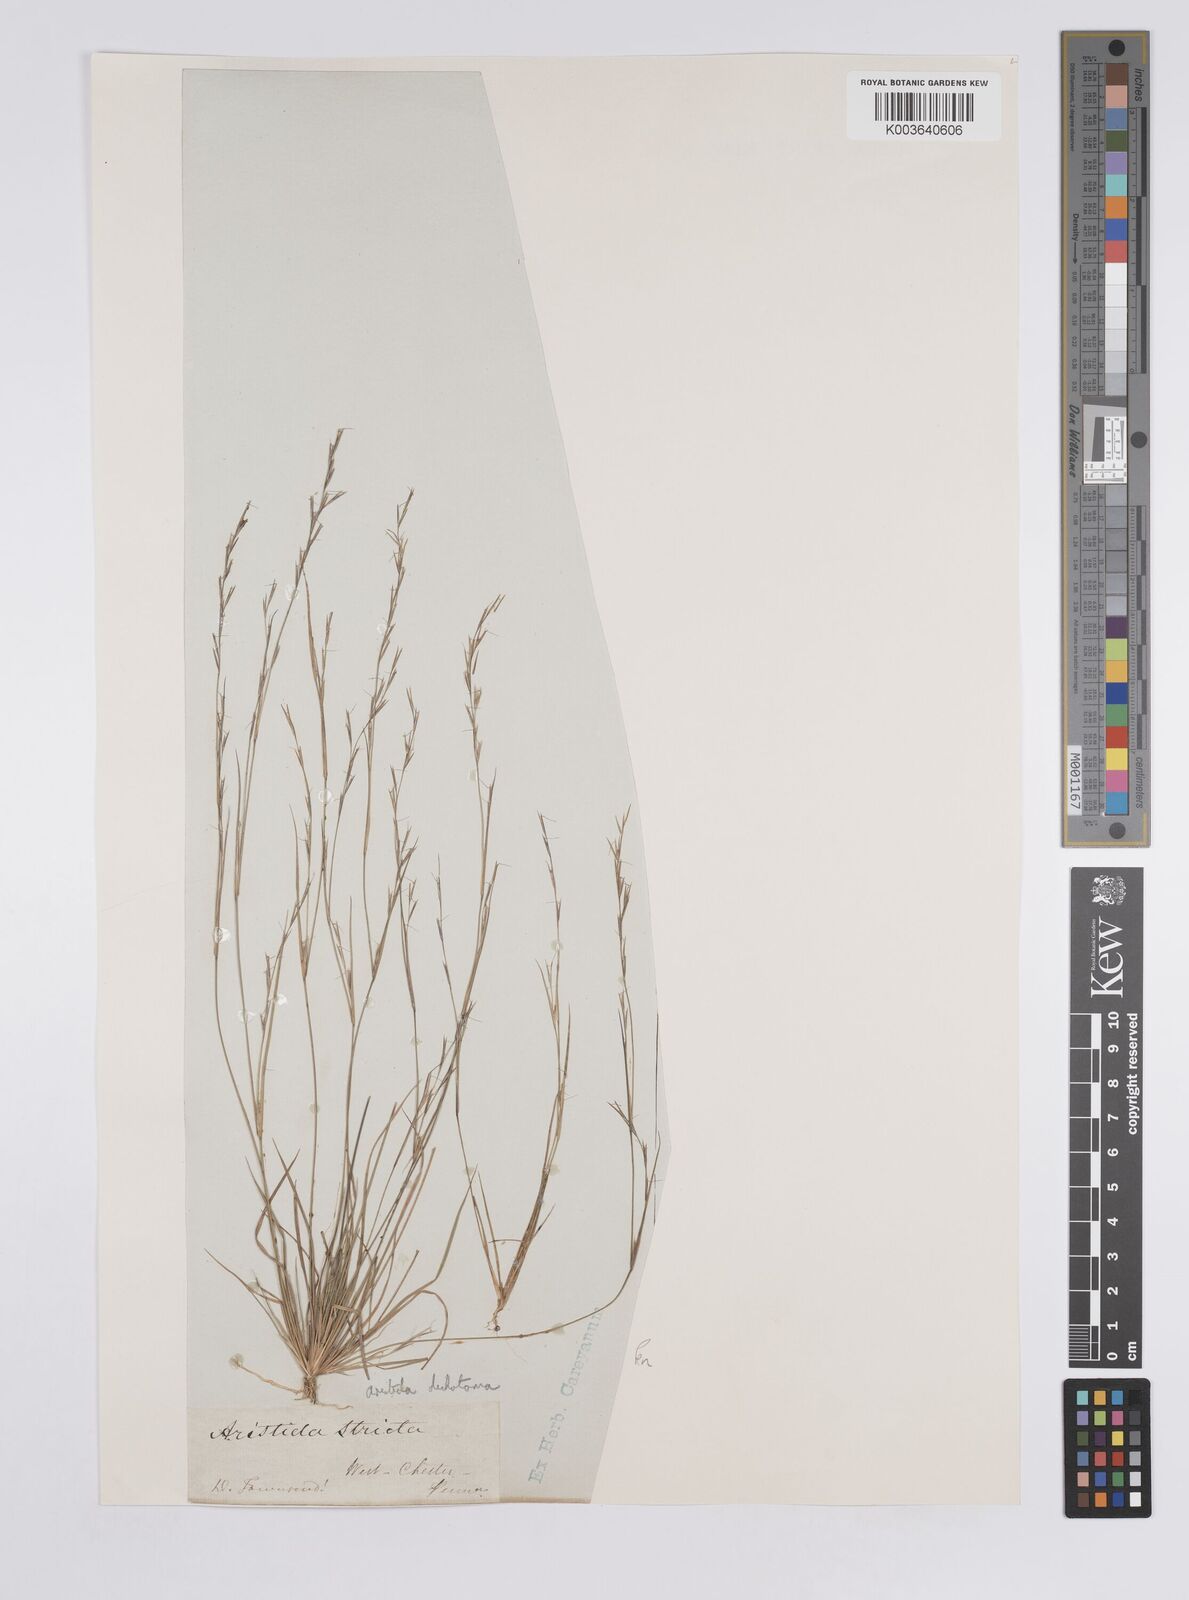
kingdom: Plantae
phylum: Tracheophyta
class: Liliopsida
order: Poales
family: Poaceae
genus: Aristida
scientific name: Aristida dichotoma
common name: Churchmouse three-awn
